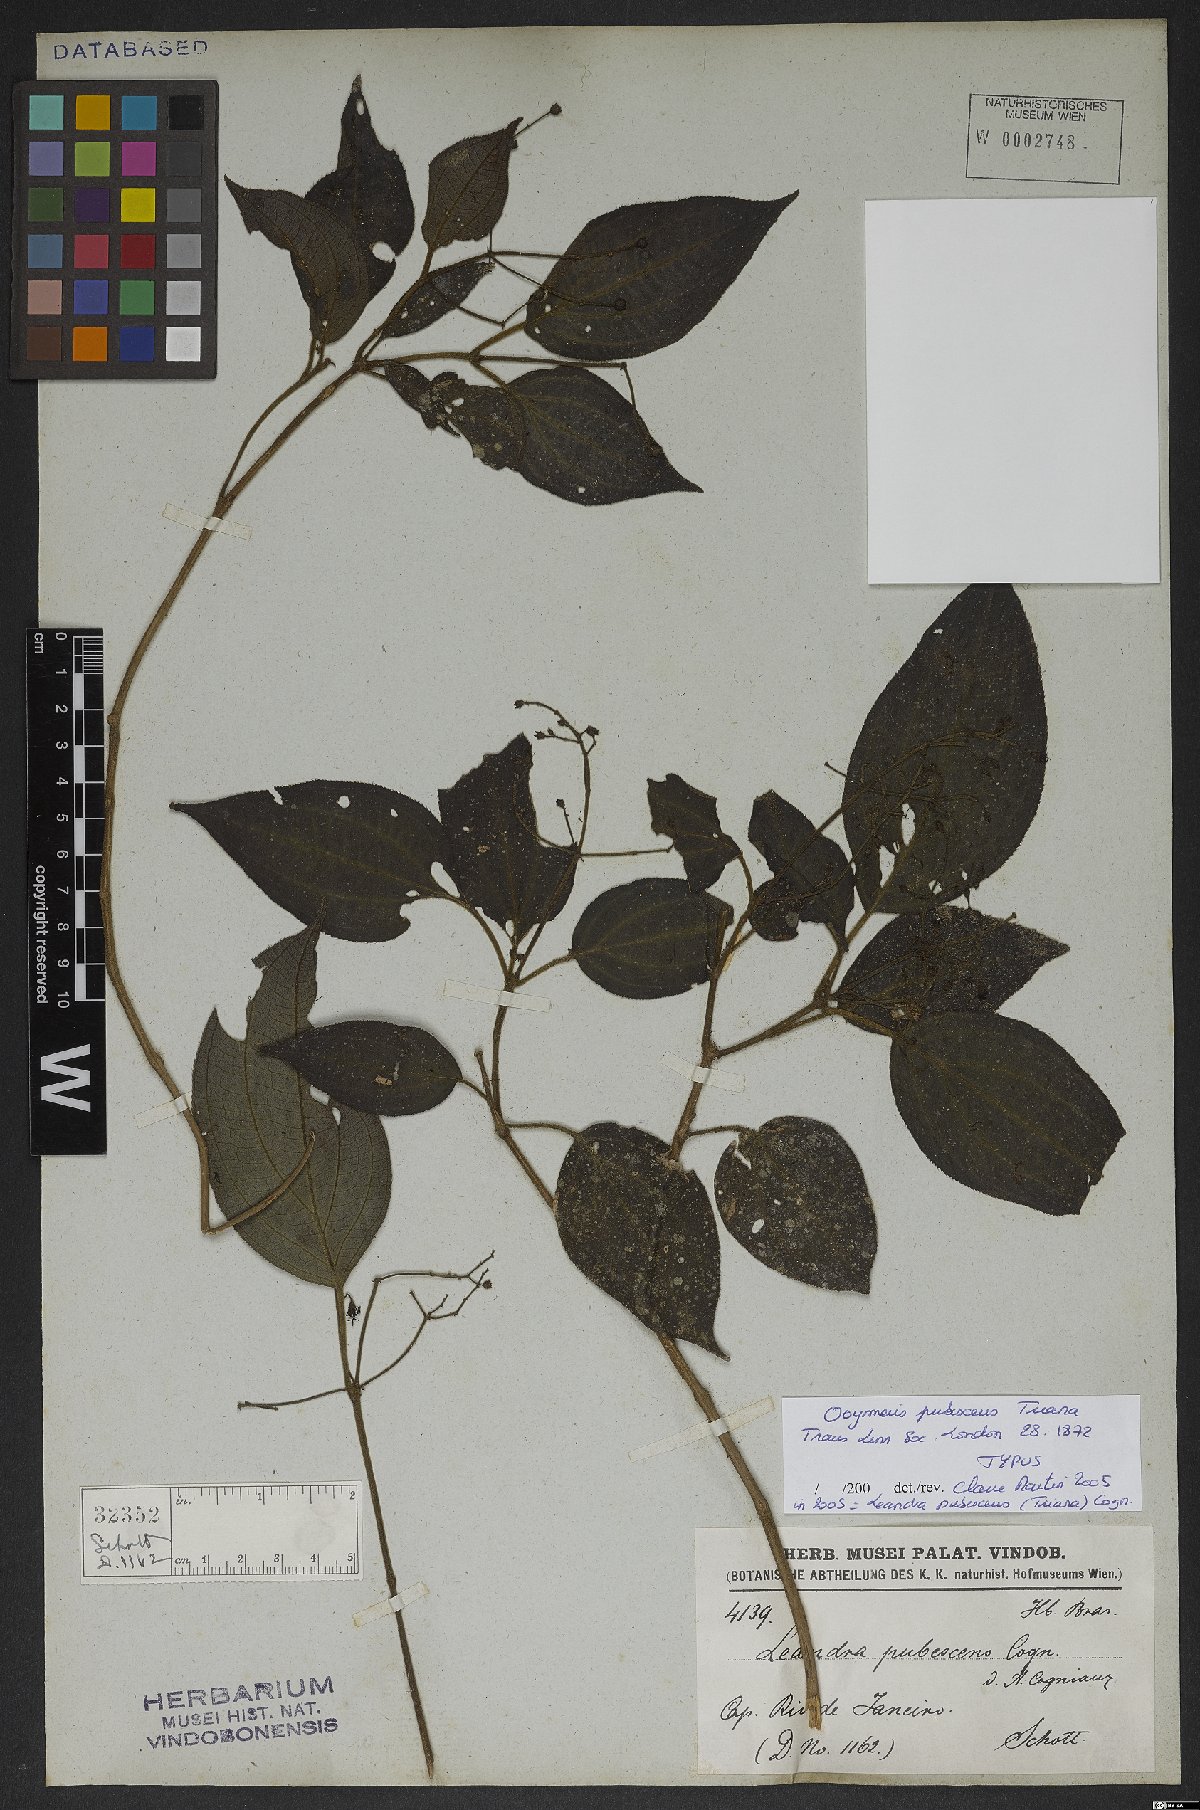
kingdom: Plantae
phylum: Tracheophyta
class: Magnoliopsida
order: Myrtales
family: Melastomataceae
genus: Miconia
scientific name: Miconia strigilliflora
